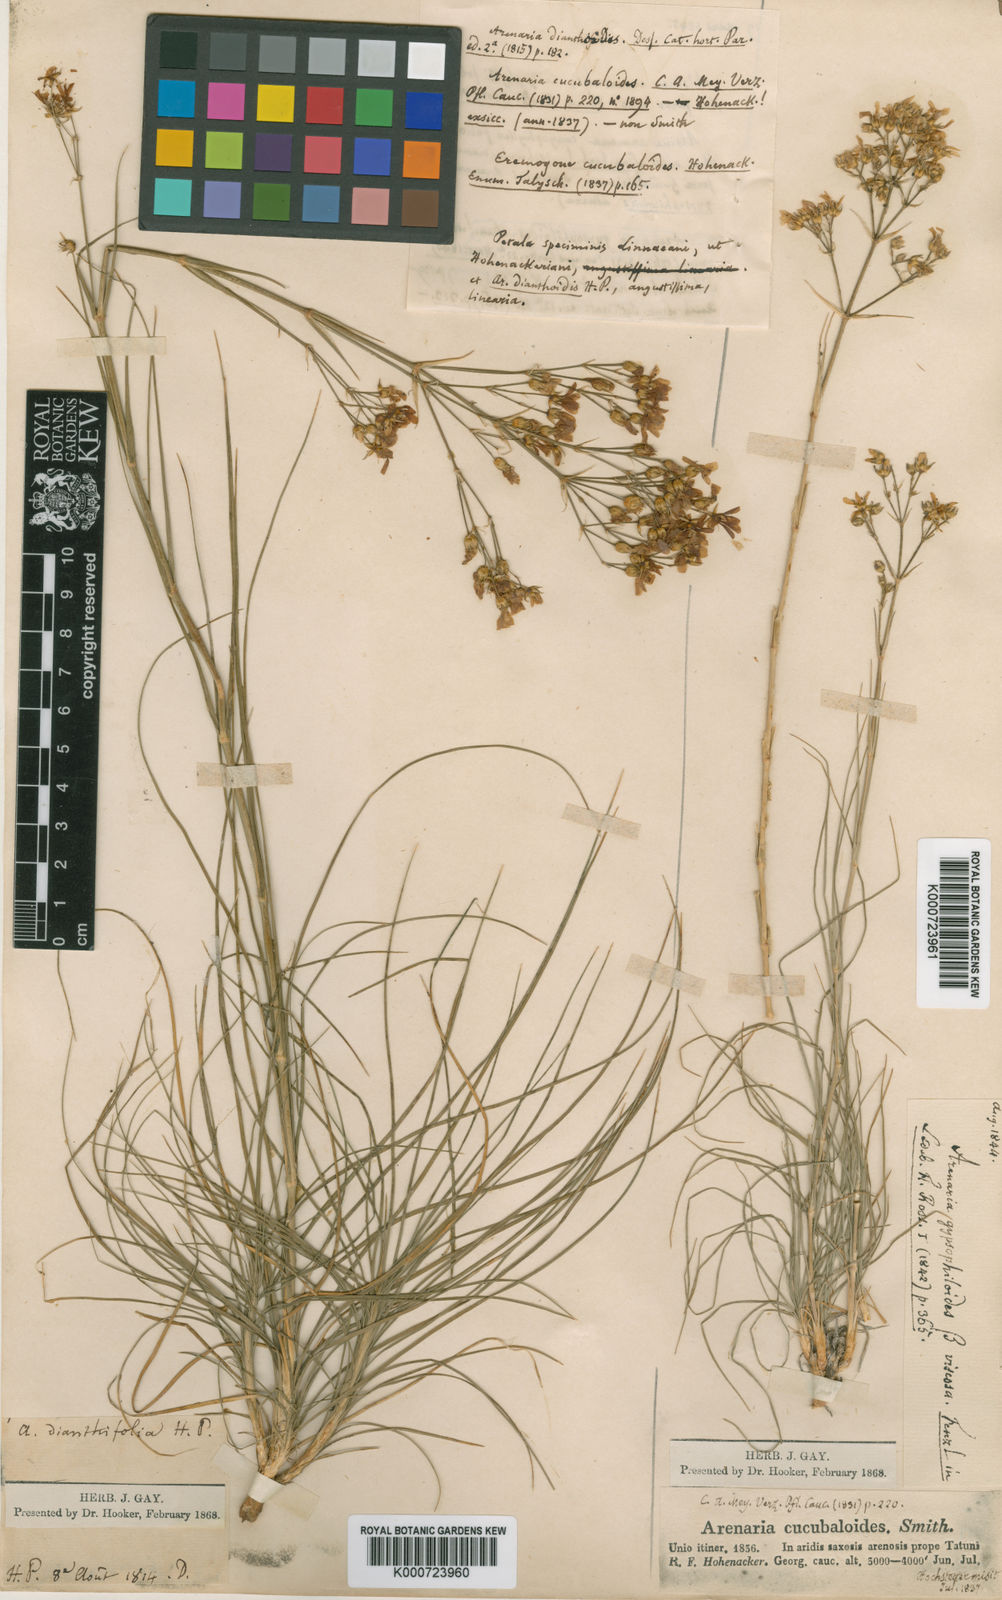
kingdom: Plantae
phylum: Tracheophyta
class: Magnoliopsida
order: Caryophyllales
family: Caryophyllaceae
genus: Eremogone
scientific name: Eremogone gypsophiloides
